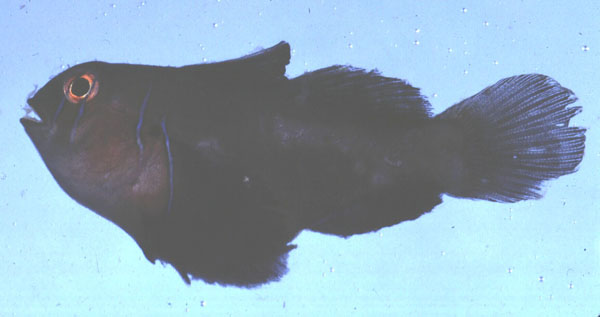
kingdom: Animalia
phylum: Chordata
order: Perciformes
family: Gobiidae
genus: Gobiodon
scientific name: Gobiodon citrinus
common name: Citron goby
